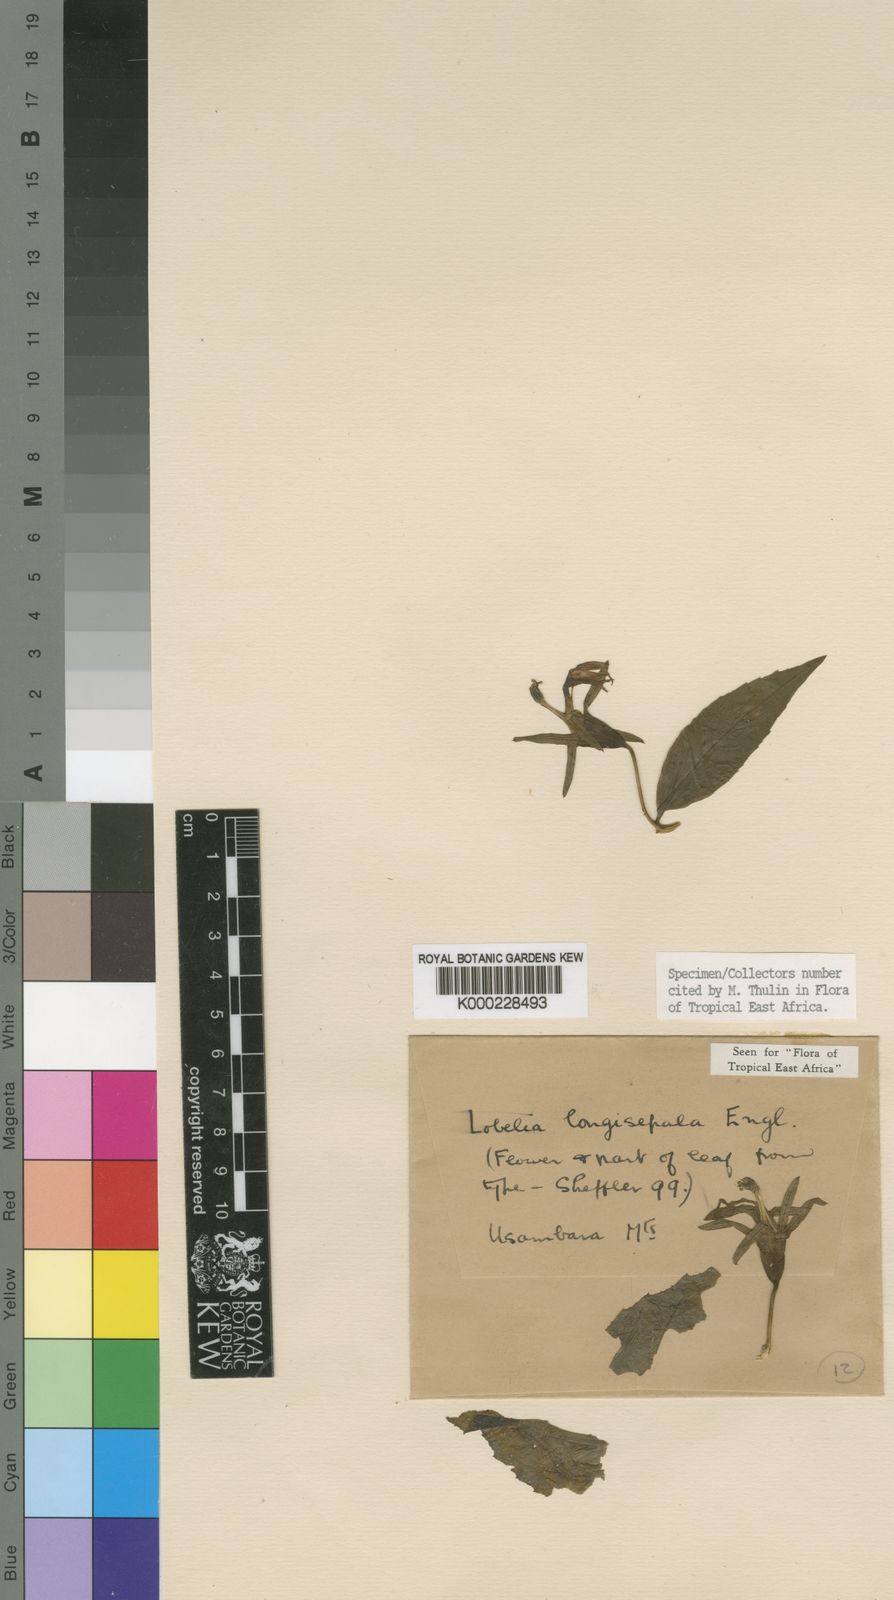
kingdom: Plantae
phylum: Tracheophyta
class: Magnoliopsida
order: Asterales
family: Campanulaceae
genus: Lobelia
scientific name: Lobelia longisepala
